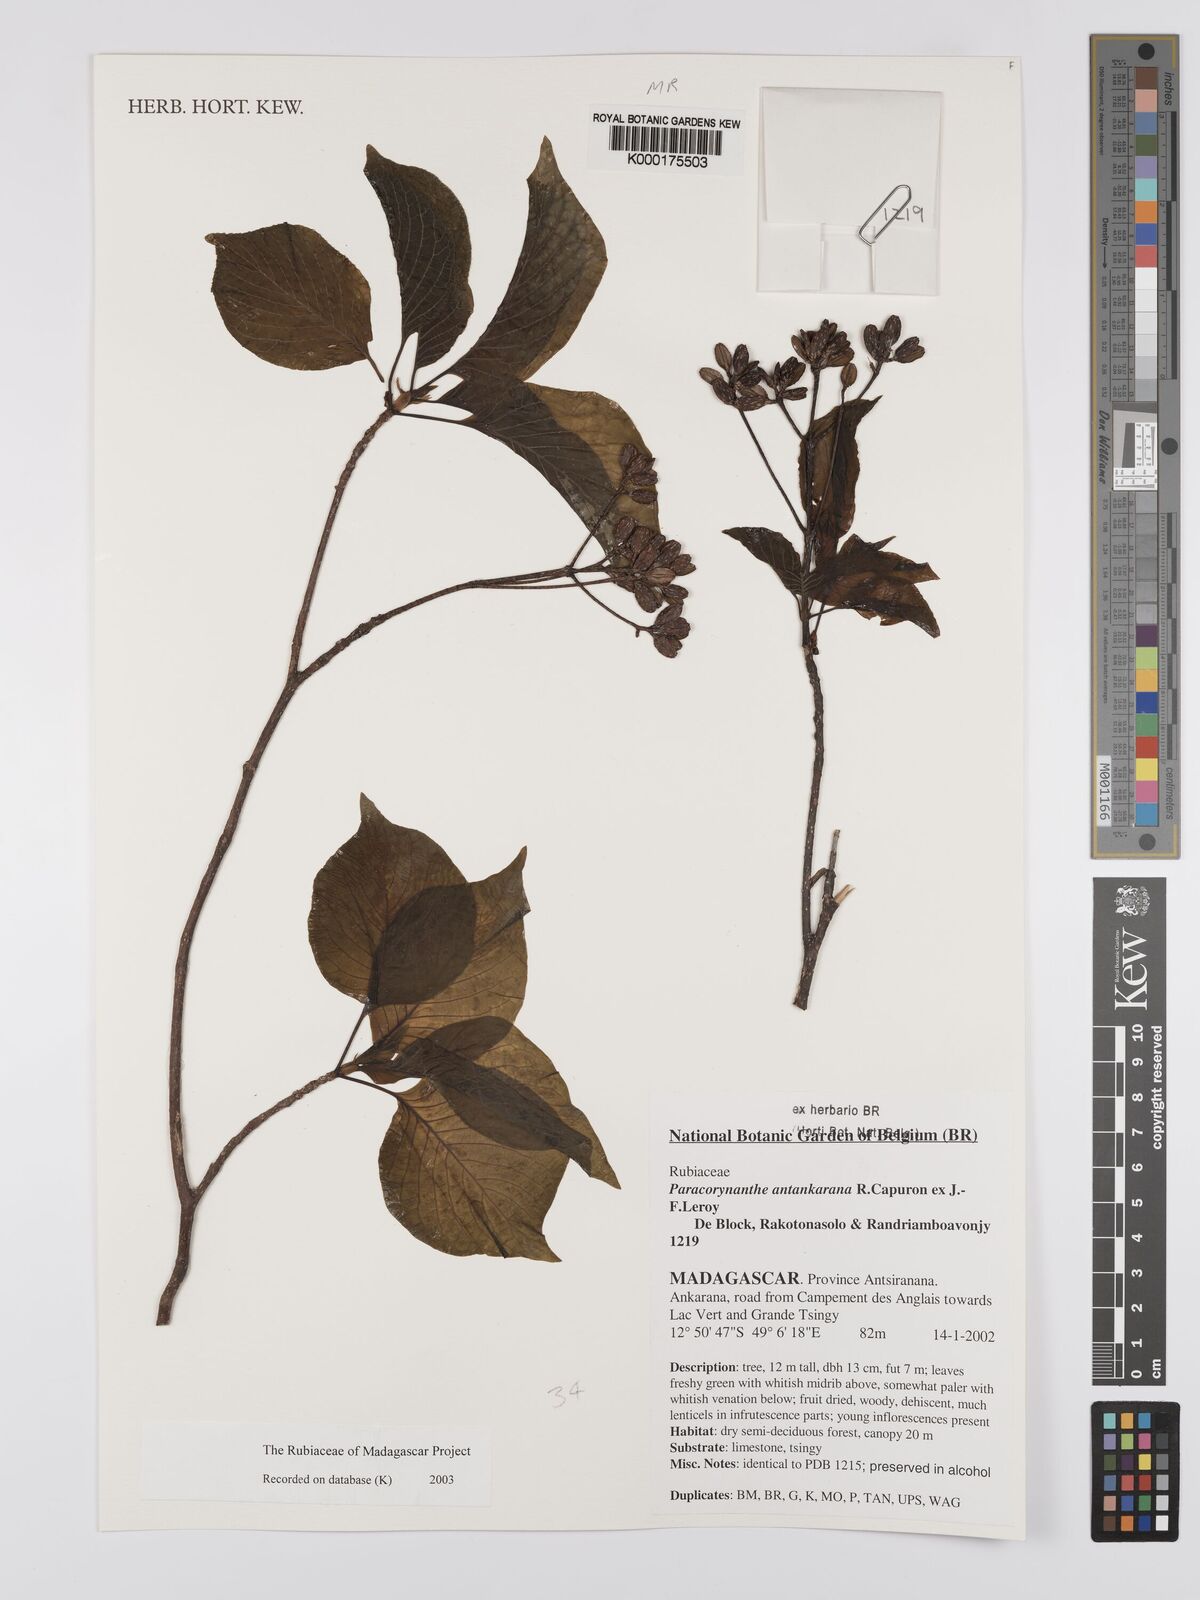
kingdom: Plantae
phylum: Tracheophyta
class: Magnoliopsida
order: Gentianales
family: Rubiaceae
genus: Paracorynanthe
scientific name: Paracorynanthe antankarana
